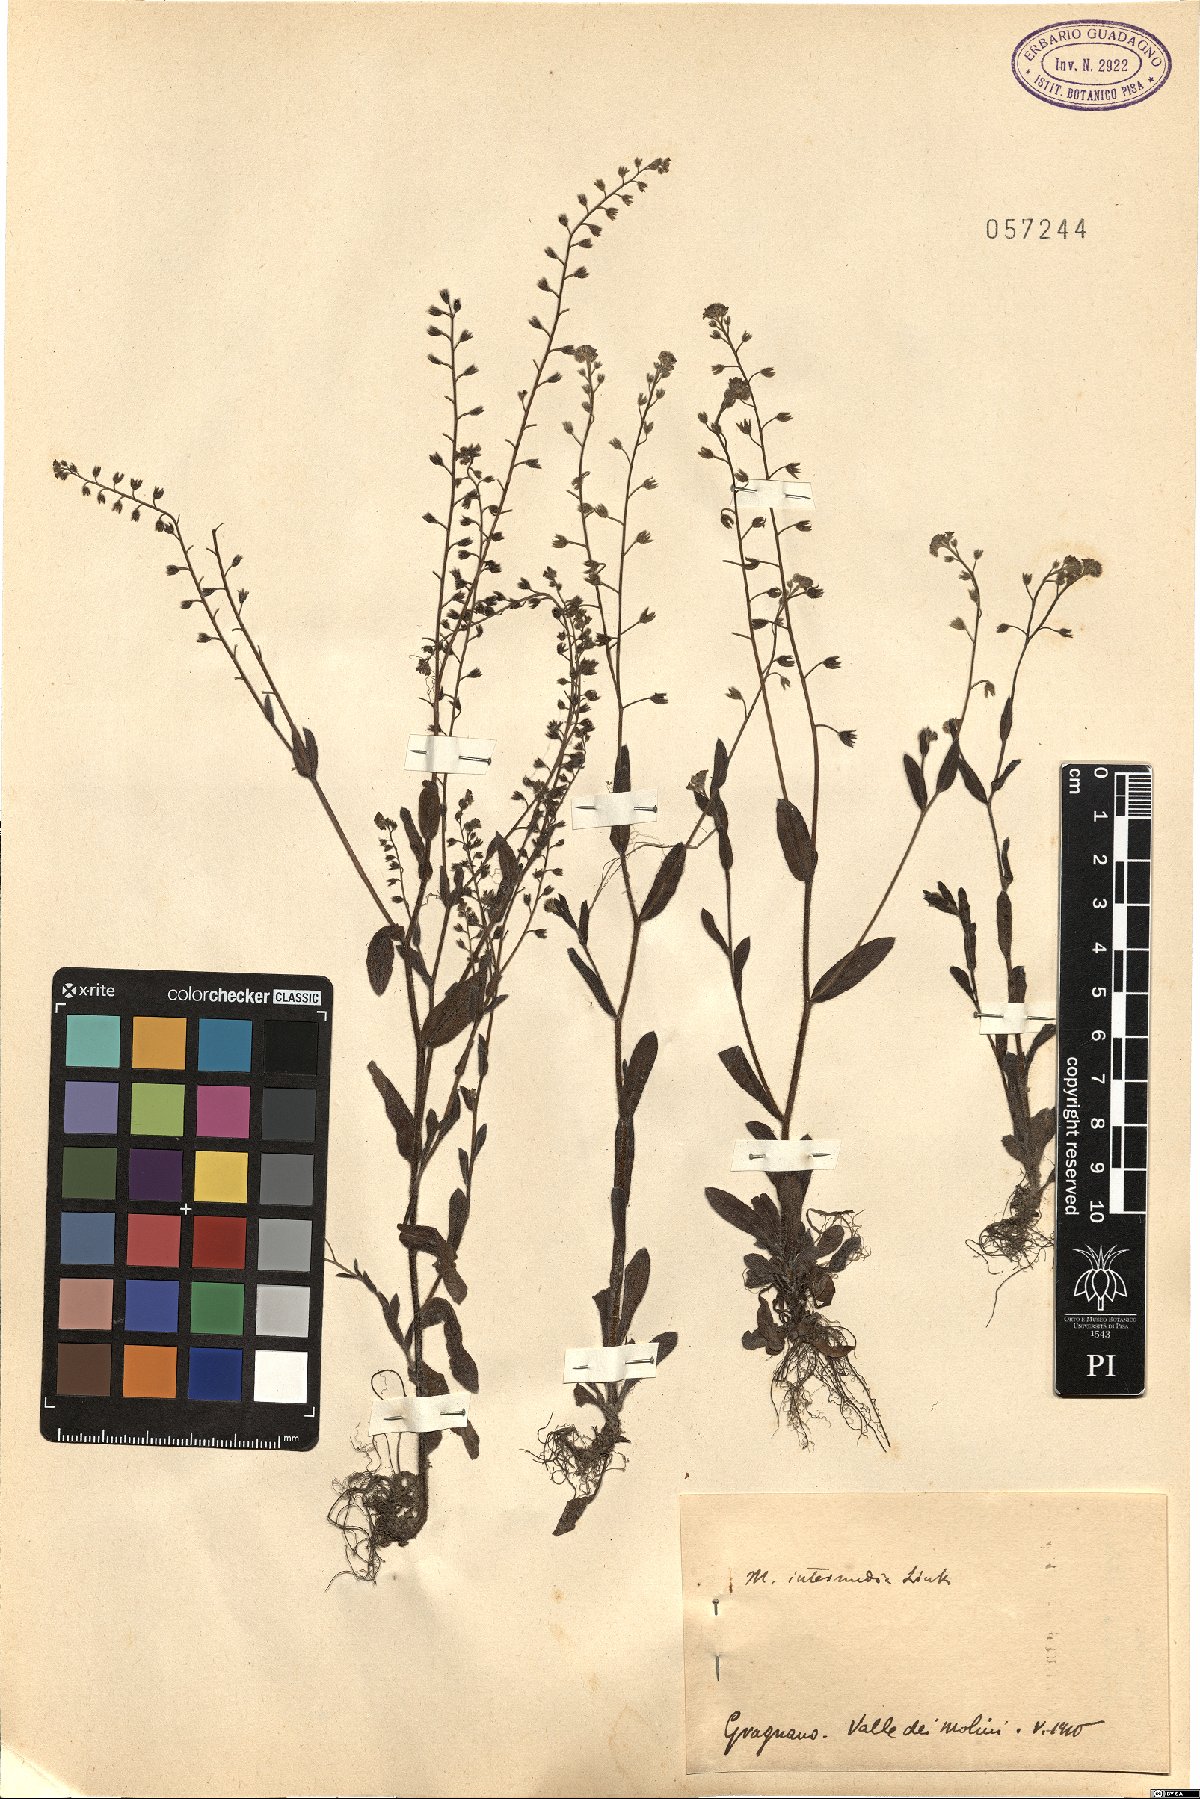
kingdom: Plantae
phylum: Tracheophyta
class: Magnoliopsida
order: Boraginales
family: Boraginaceae
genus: Myosotis
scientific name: Myosotis arvensis
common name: Field forget-me-not
